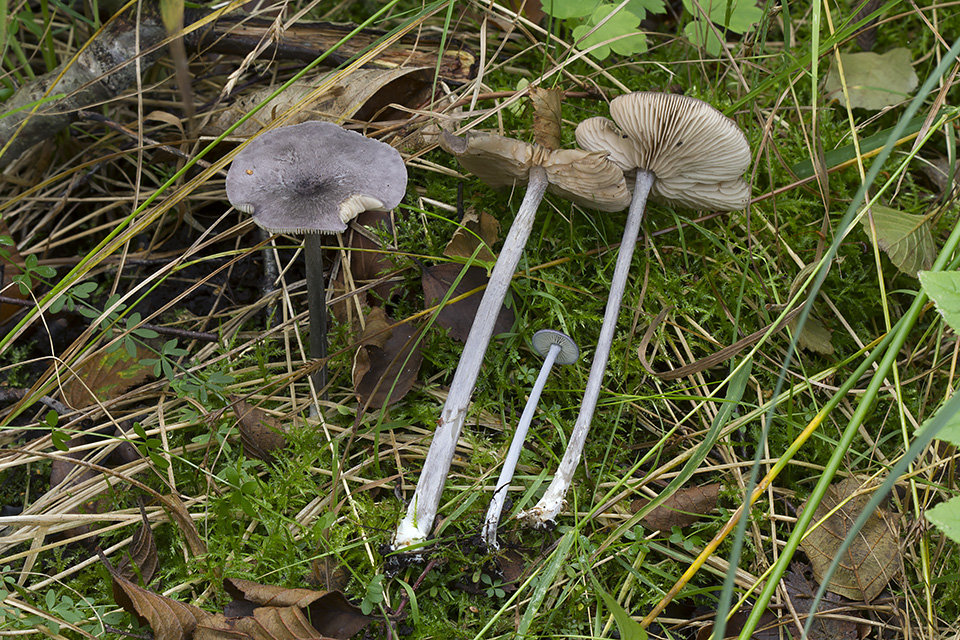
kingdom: Fungi
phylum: Basidiomycota
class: Agaricomycetes
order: Agaricales
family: Entolomataceae
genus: Entoloma
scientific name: Entoloma mougeotii
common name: violetgrå rødblad
